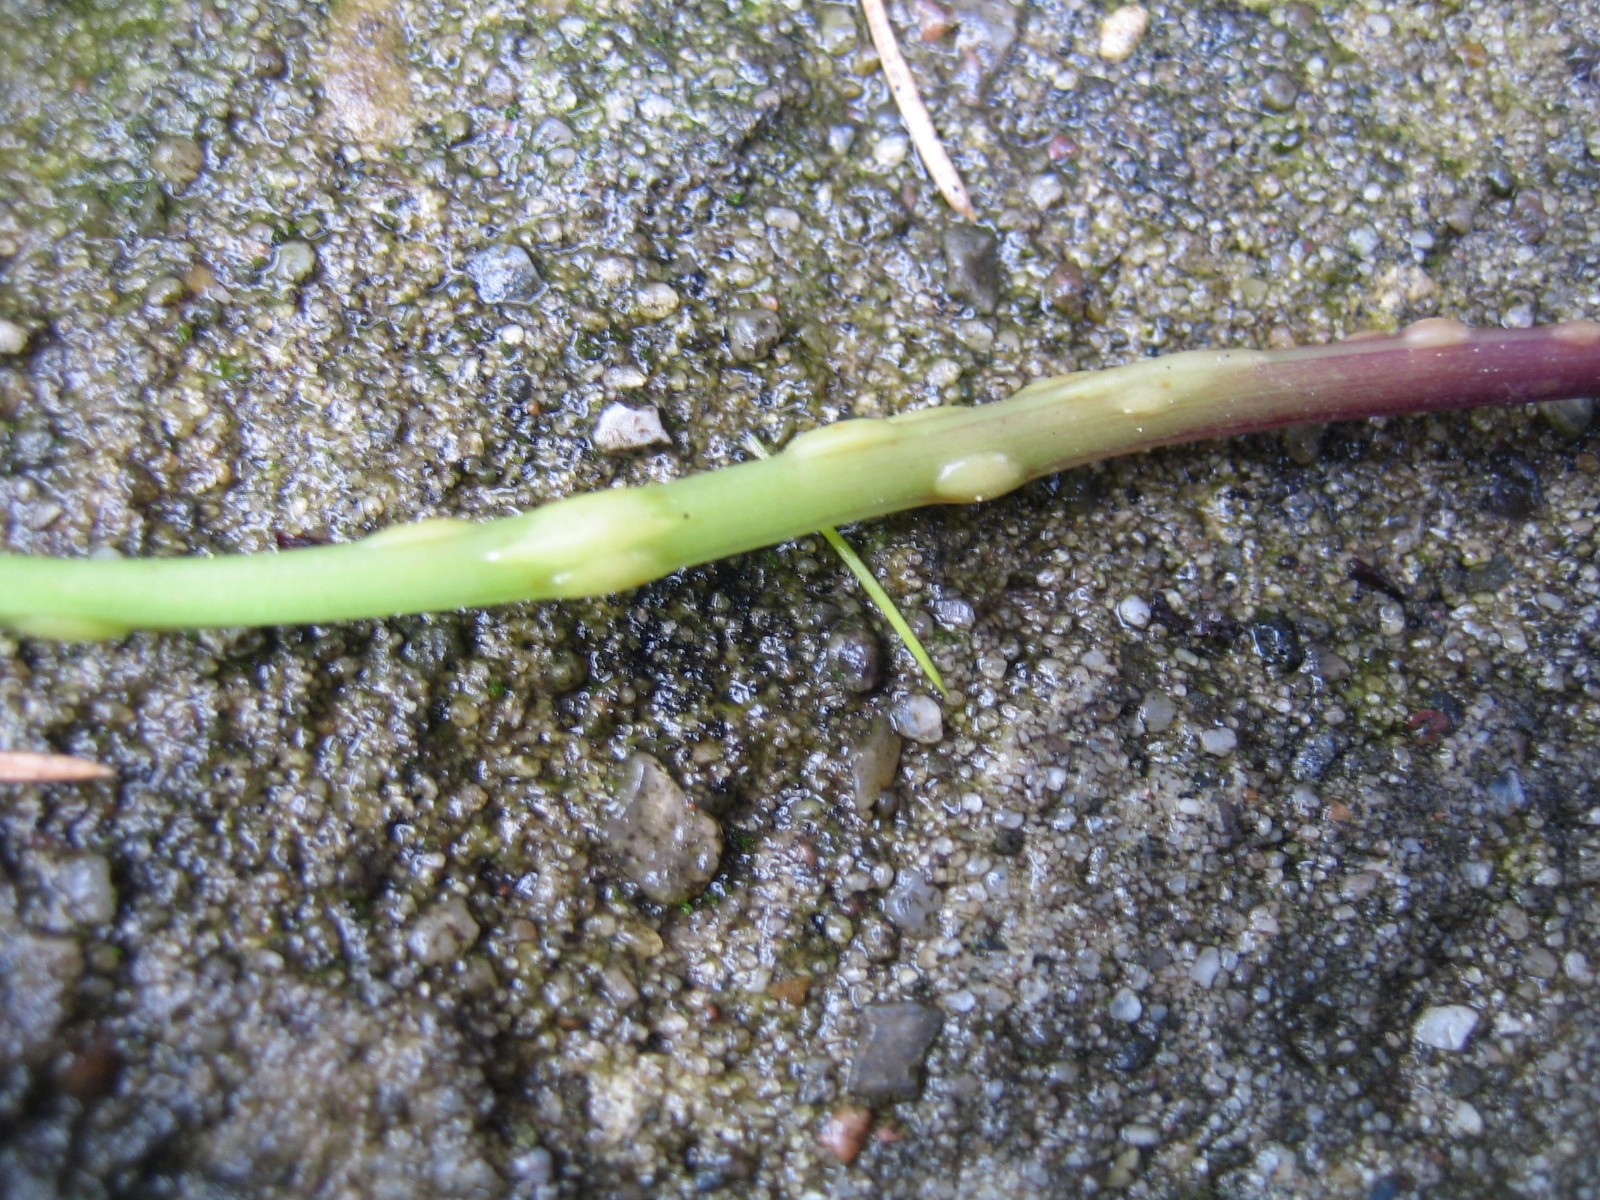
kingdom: Fungi
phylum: Ascomycota
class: Taphrinomycetes
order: Taphrinales
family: Taphrinaceae
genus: Protomyces
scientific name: Protomyces macrosporus
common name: skvalderkål-vablesæk
